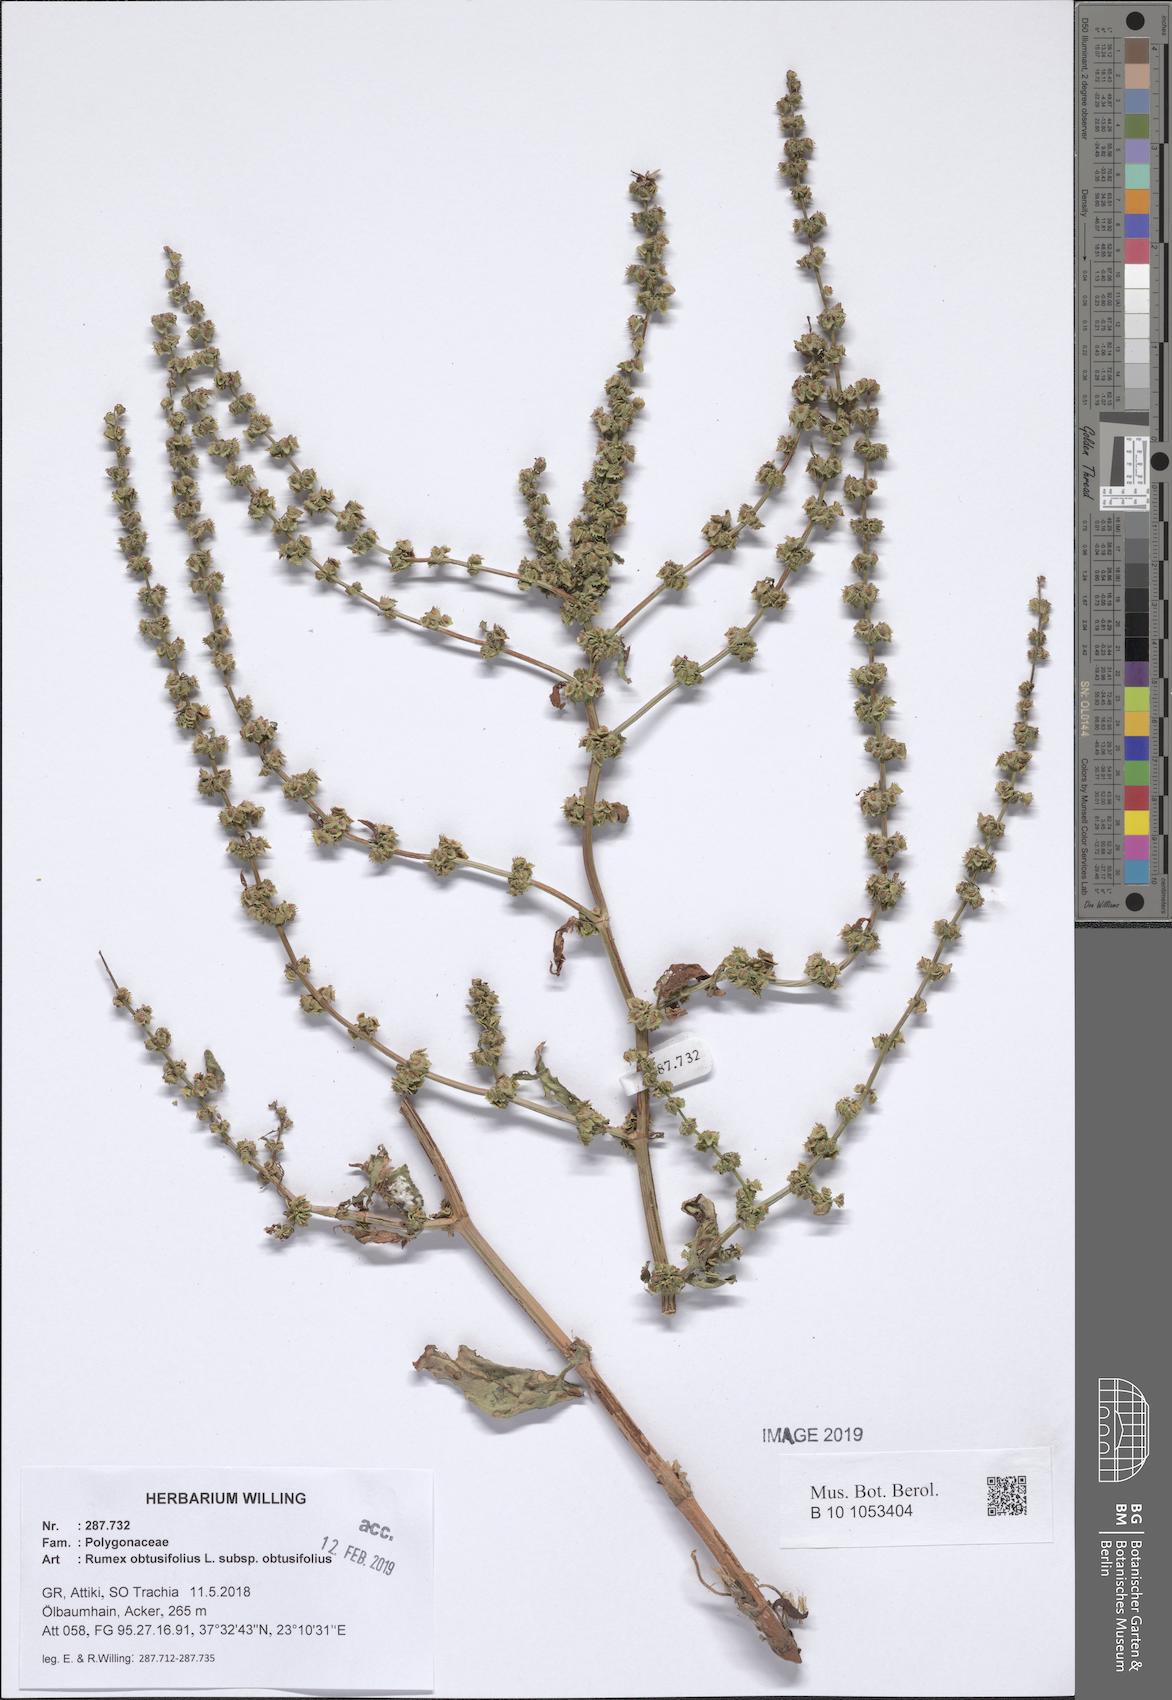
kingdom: Plantae
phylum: Tracheophyta
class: Magnoliopsida
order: Caryophyllales
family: Polygonaceae
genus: Rumex
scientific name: Rumex obtusifolius
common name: Bitter dock
